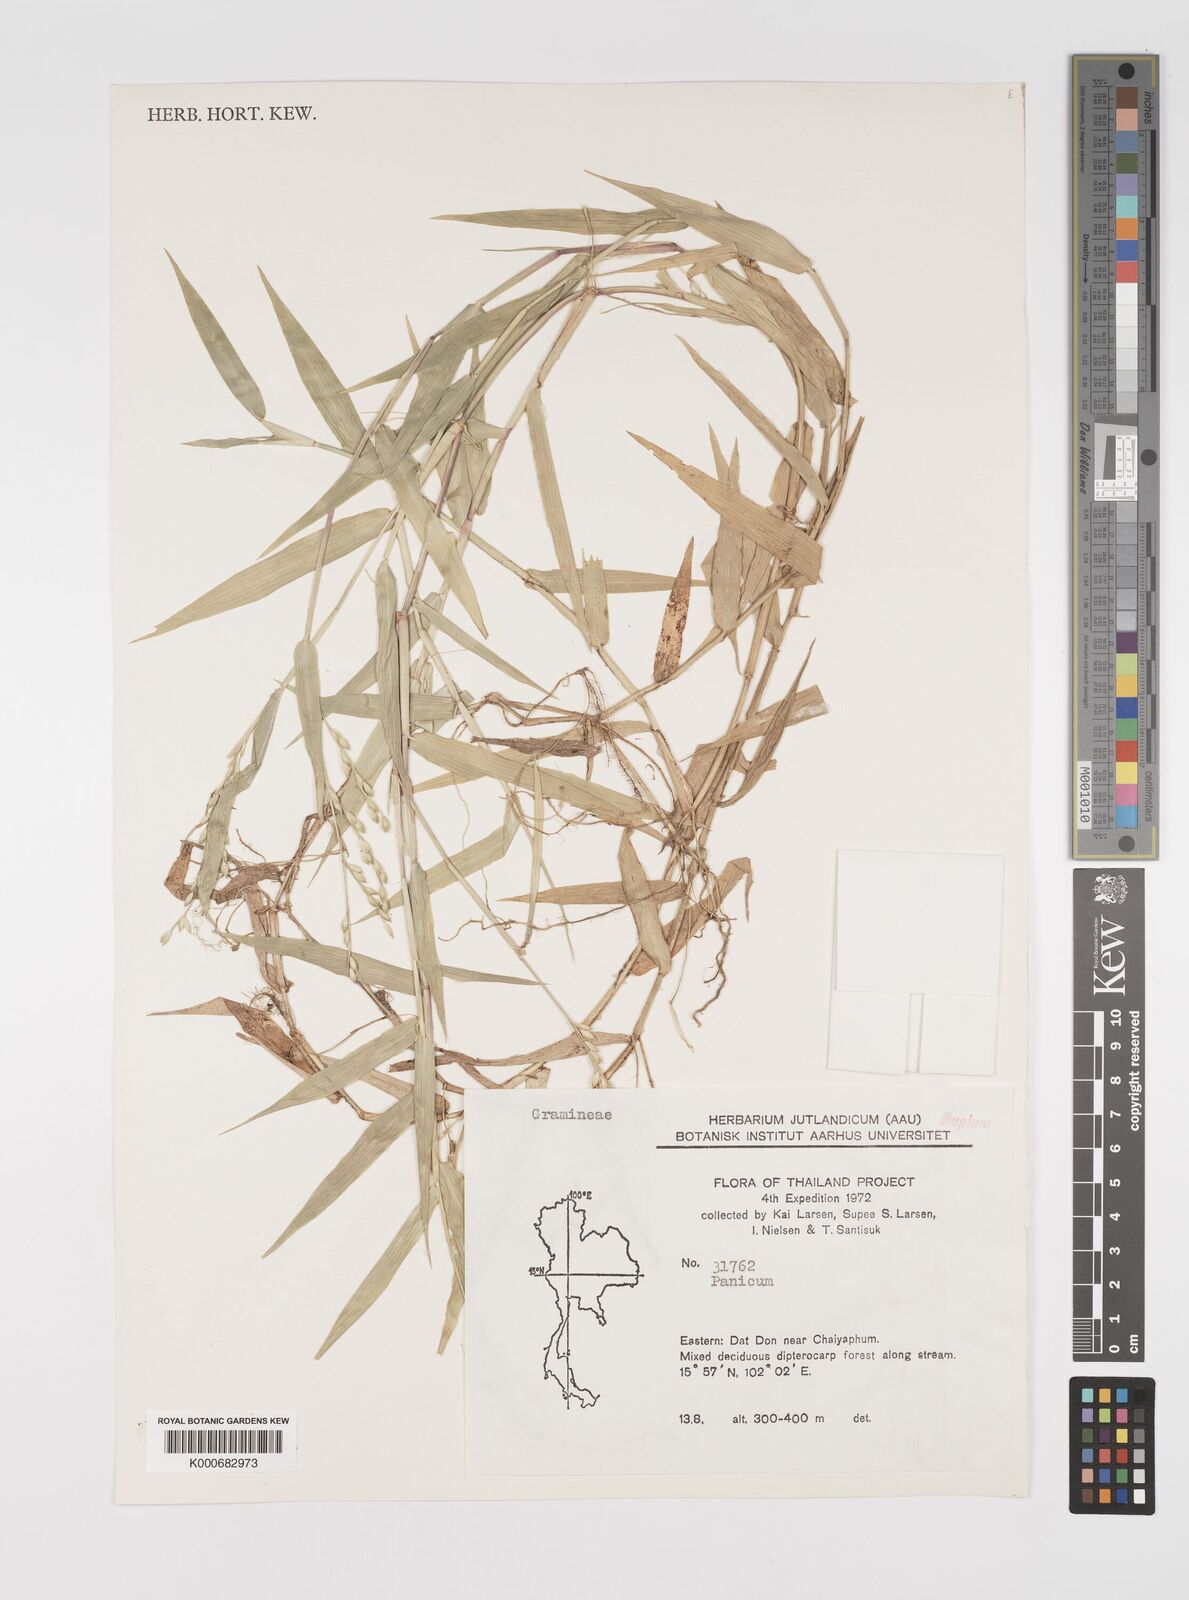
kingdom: Plantae
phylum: Tracheophyta
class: Liliopsida
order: Poales
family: Poaceae
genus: Acroceras
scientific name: Acroceras munroanum
